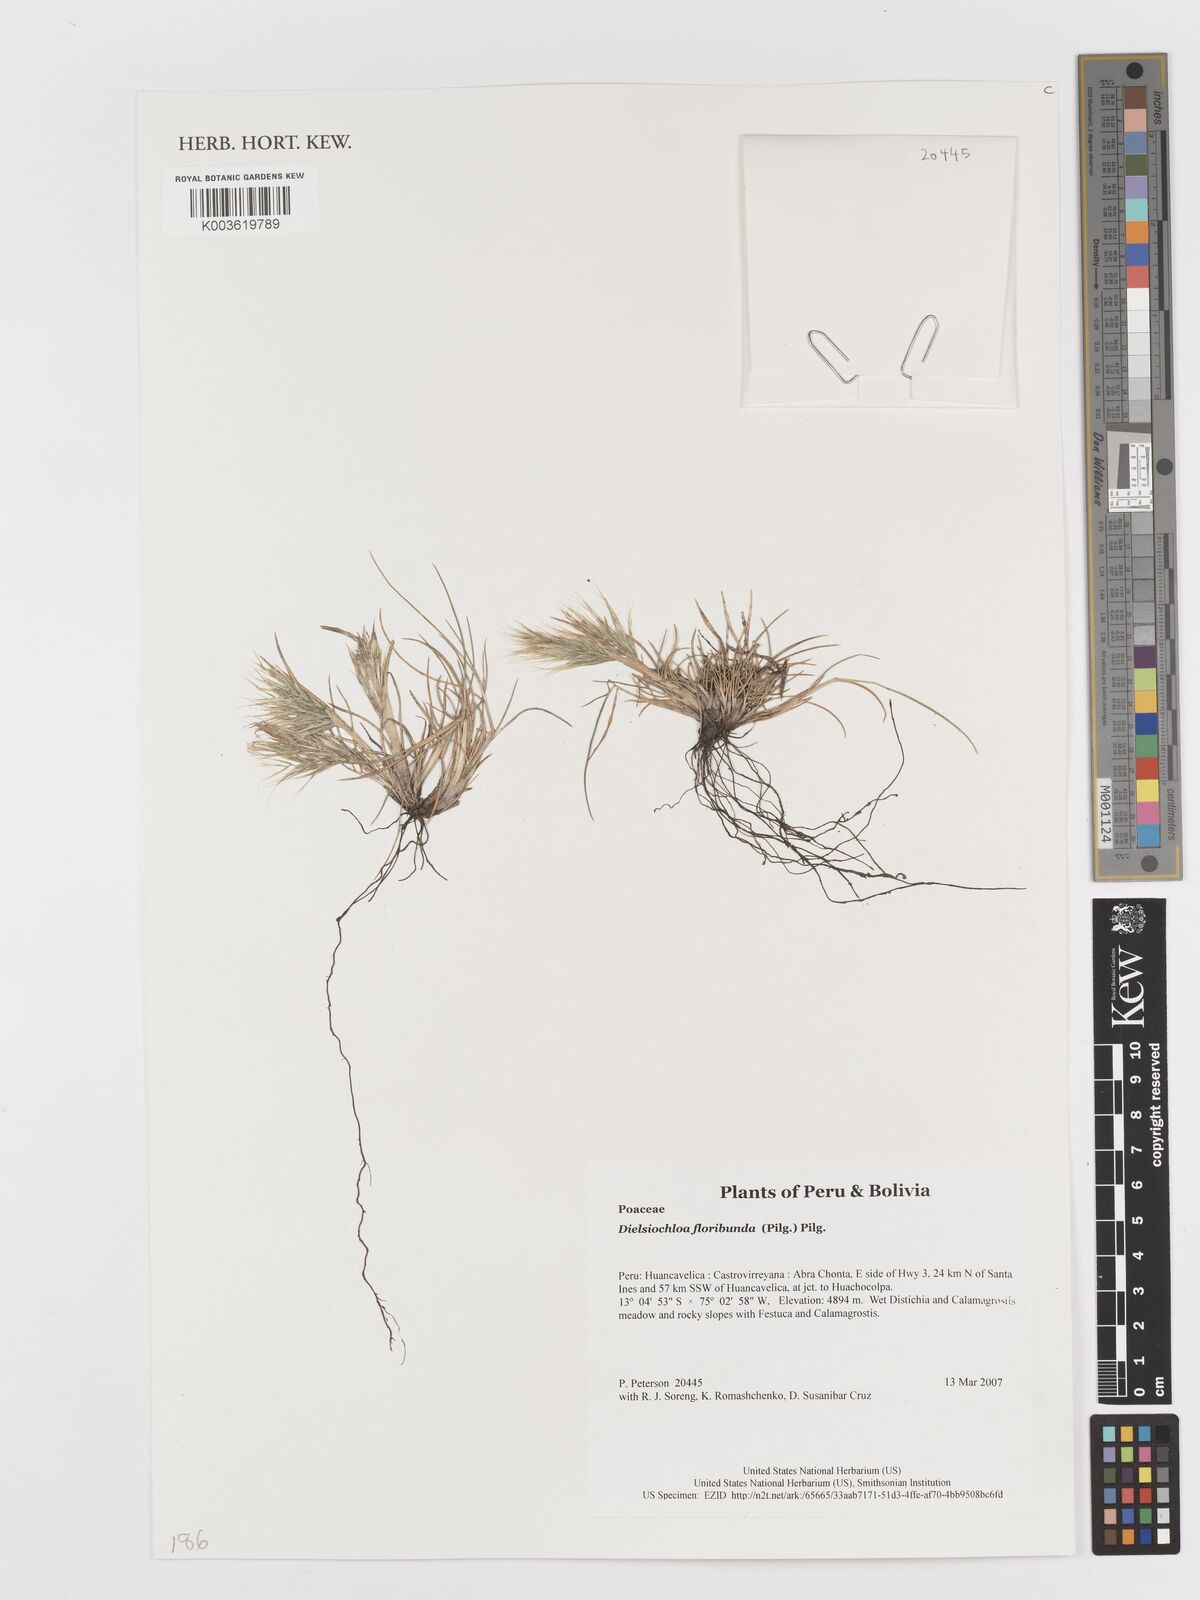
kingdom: Plantae
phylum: Tracheophyta
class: Liliopsida
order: Poales
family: Poaceae
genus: Festuca
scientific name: Festuca floribunda
